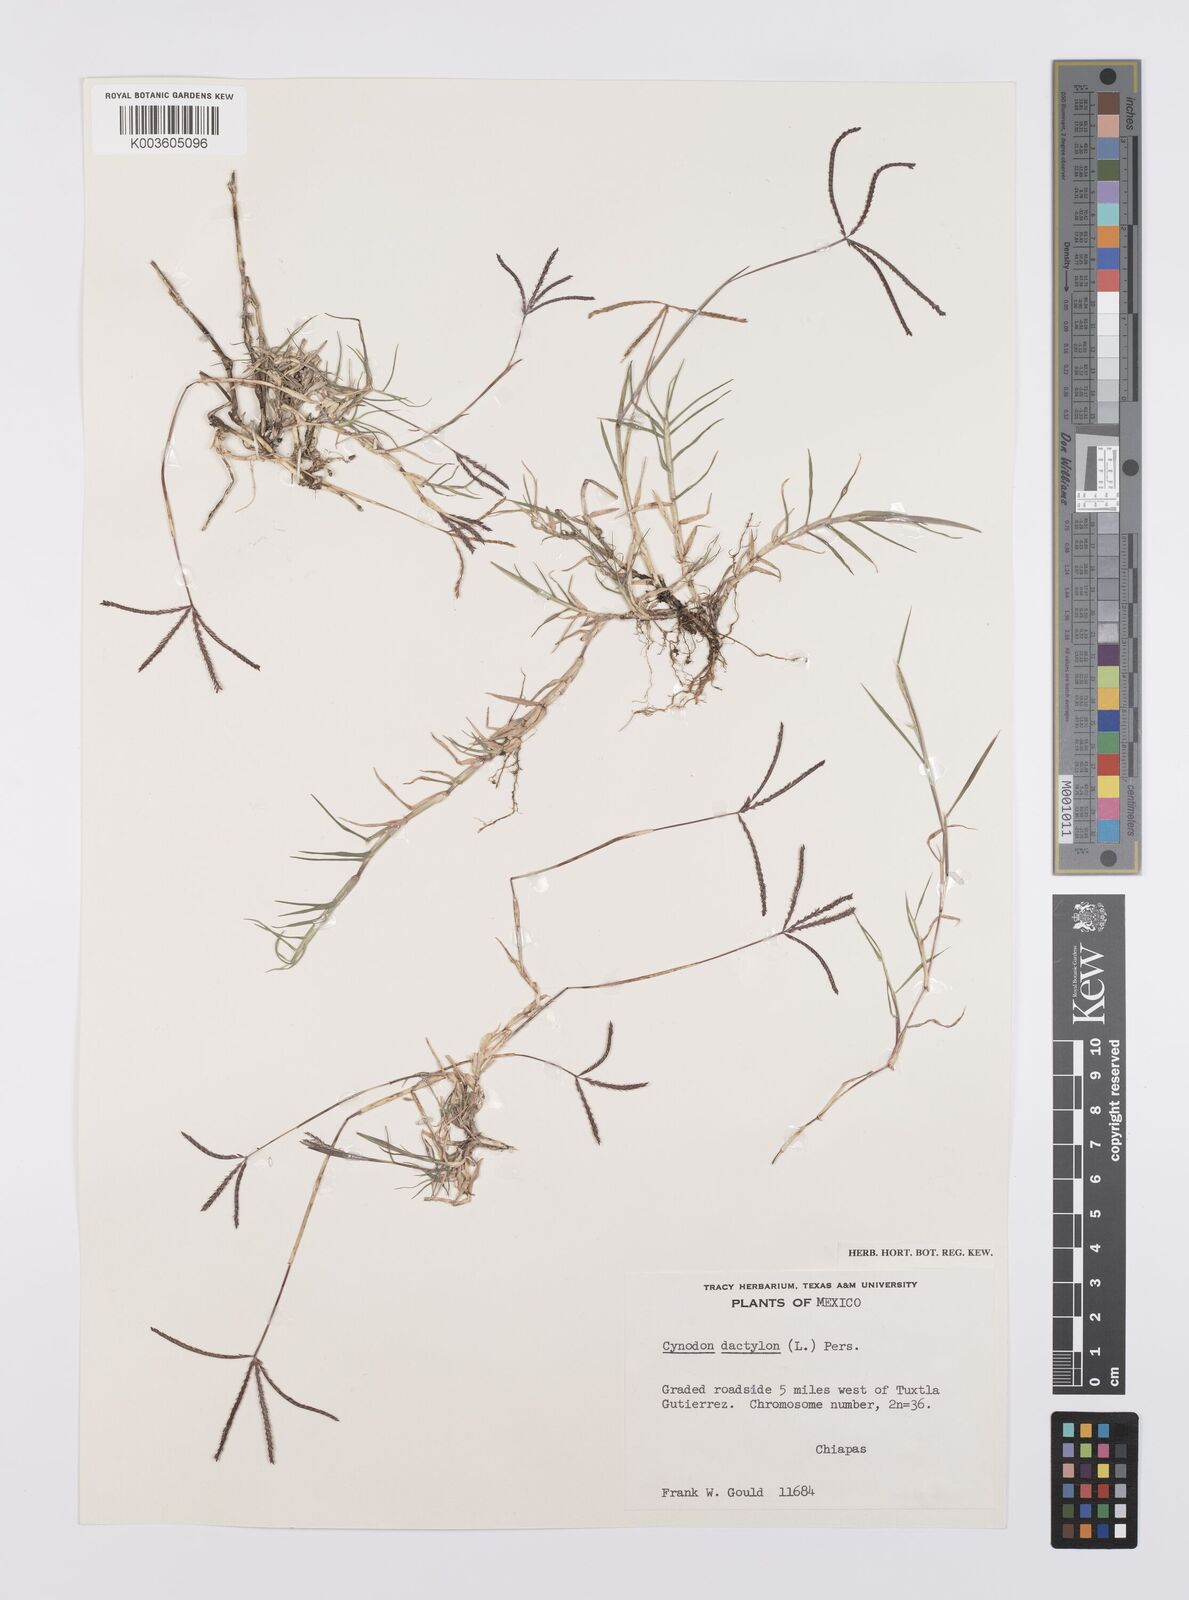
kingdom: Plantae
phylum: Tracheophyta
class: Liliopsida
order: Poales
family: Poaceae
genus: Cynodon
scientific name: Cynodon dactylon
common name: Bermuda grass
